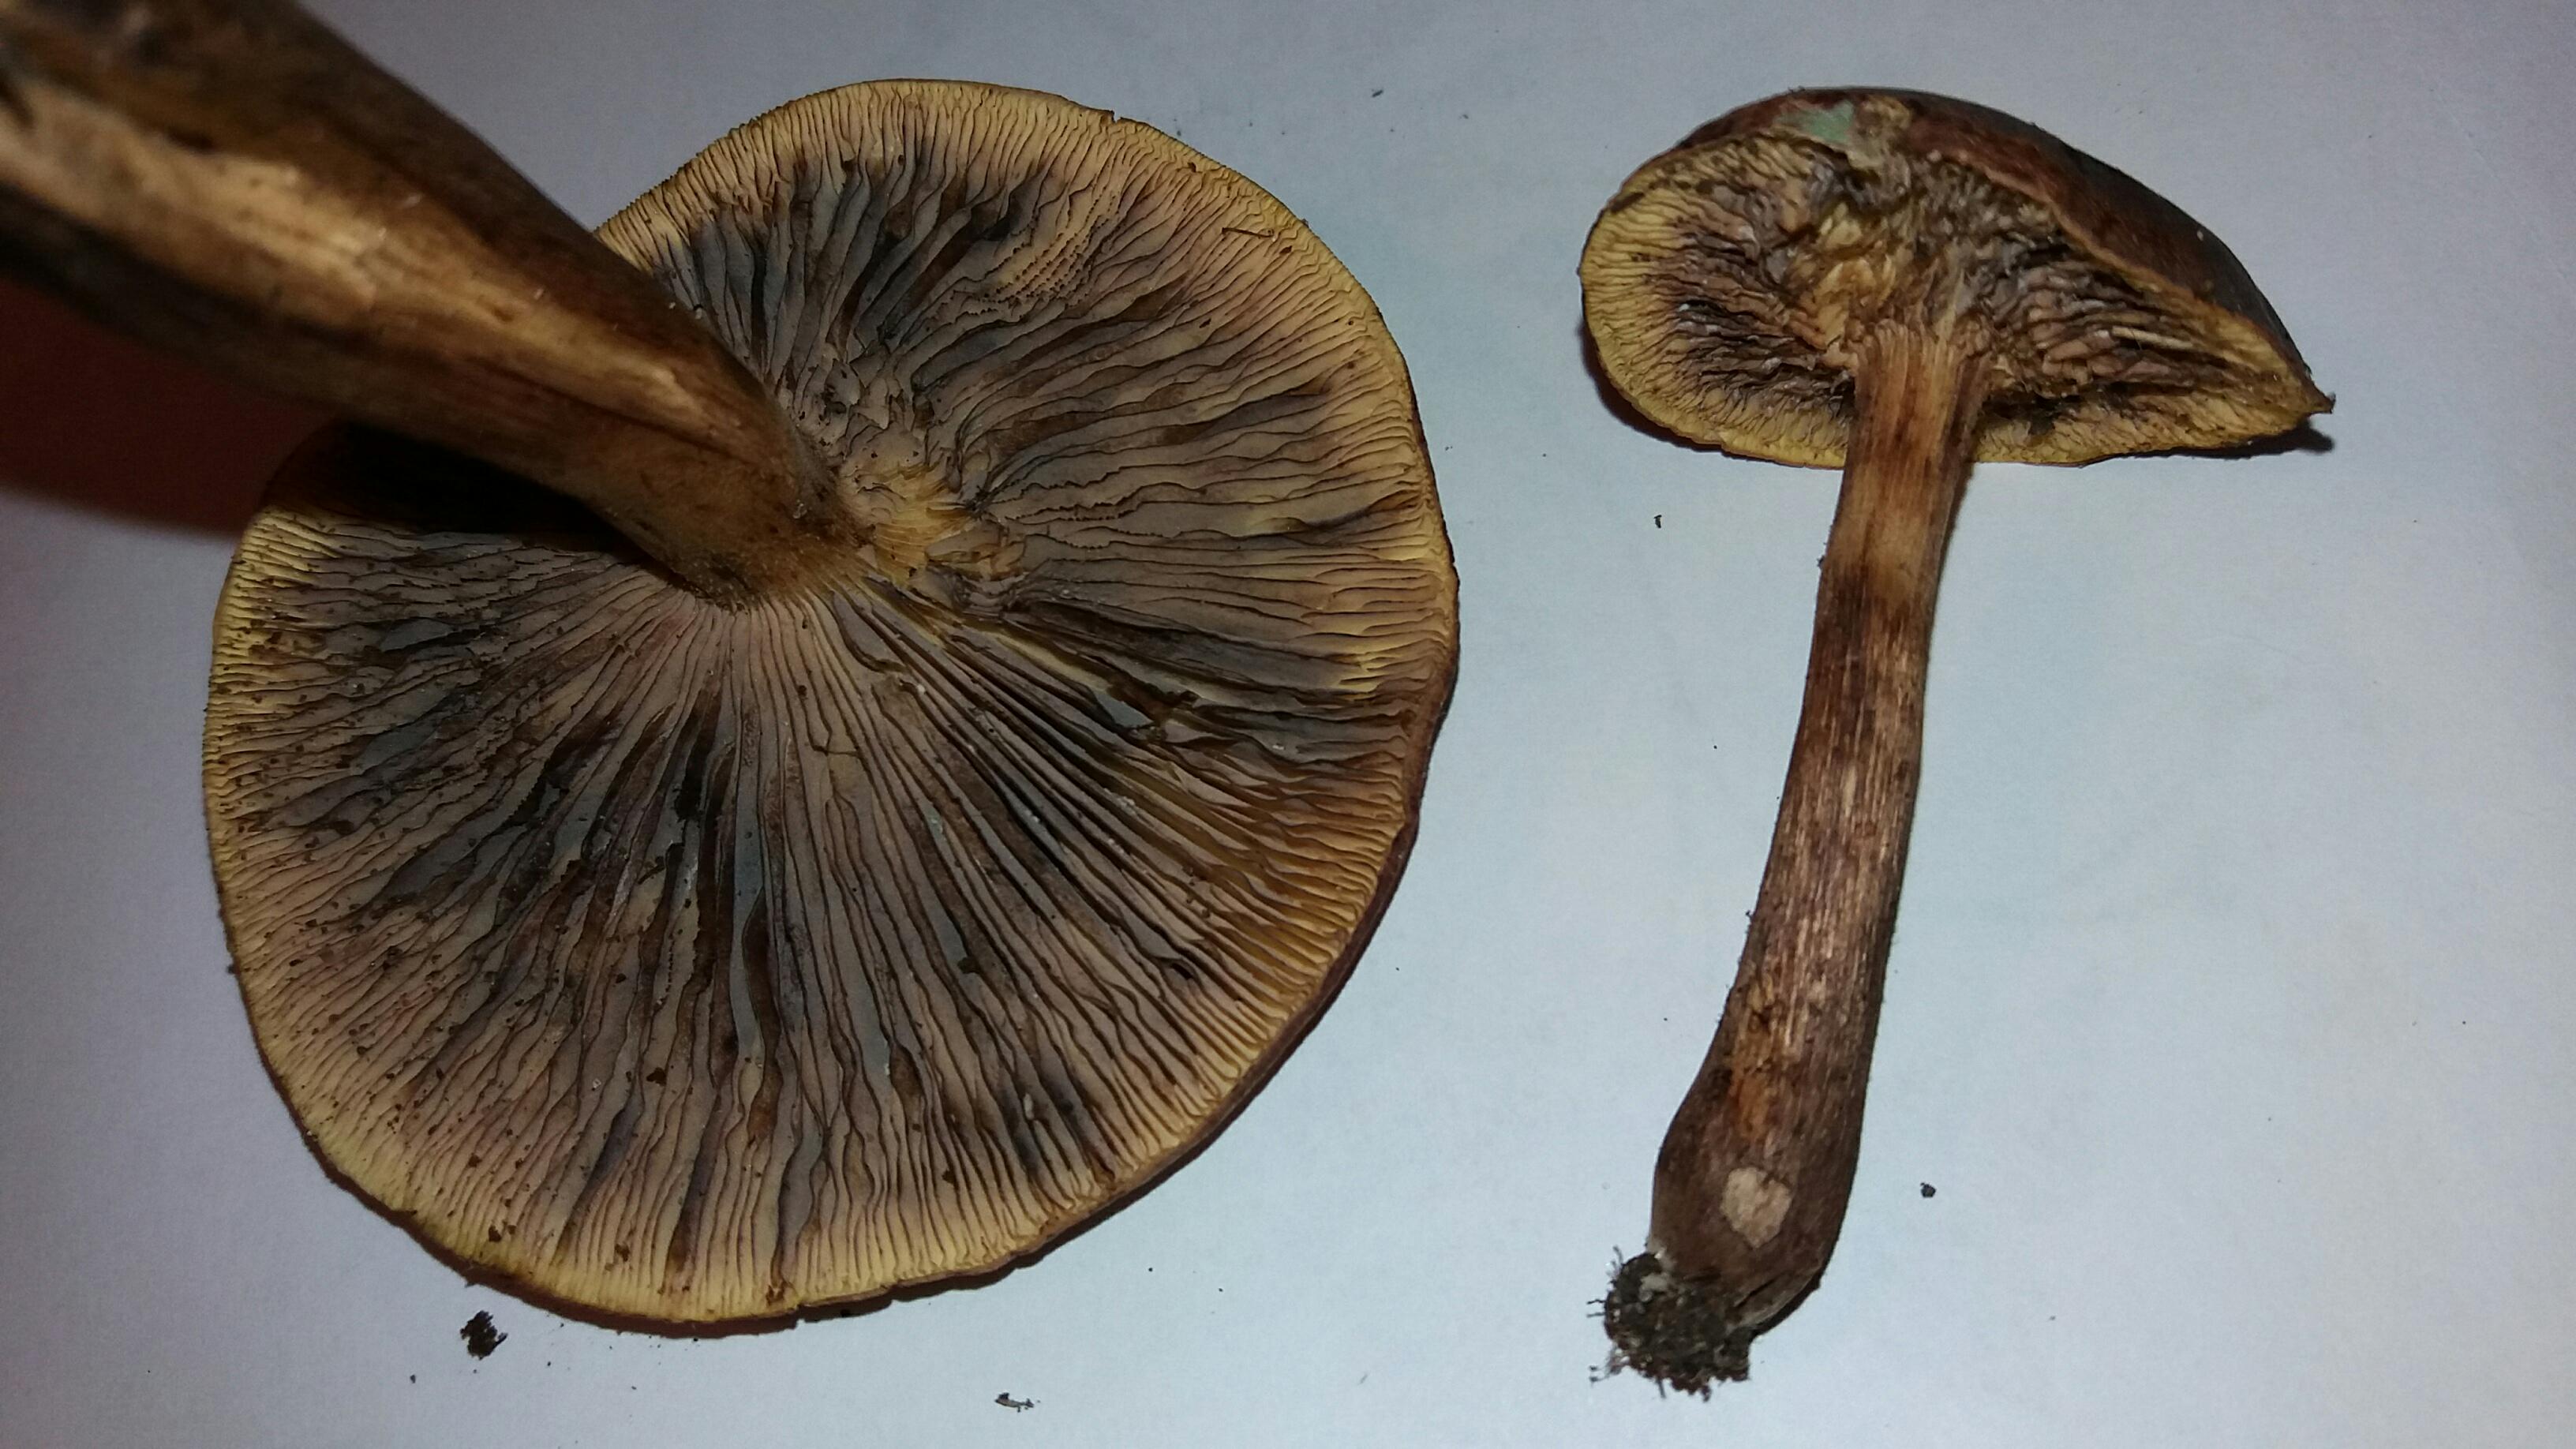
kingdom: Fungi
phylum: Basidiomycota
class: Agaricomycetes
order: Agaricales
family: Tricholomataceae
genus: Tricholoma
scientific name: Tricholoma fulvum
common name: birke-ridderhat
